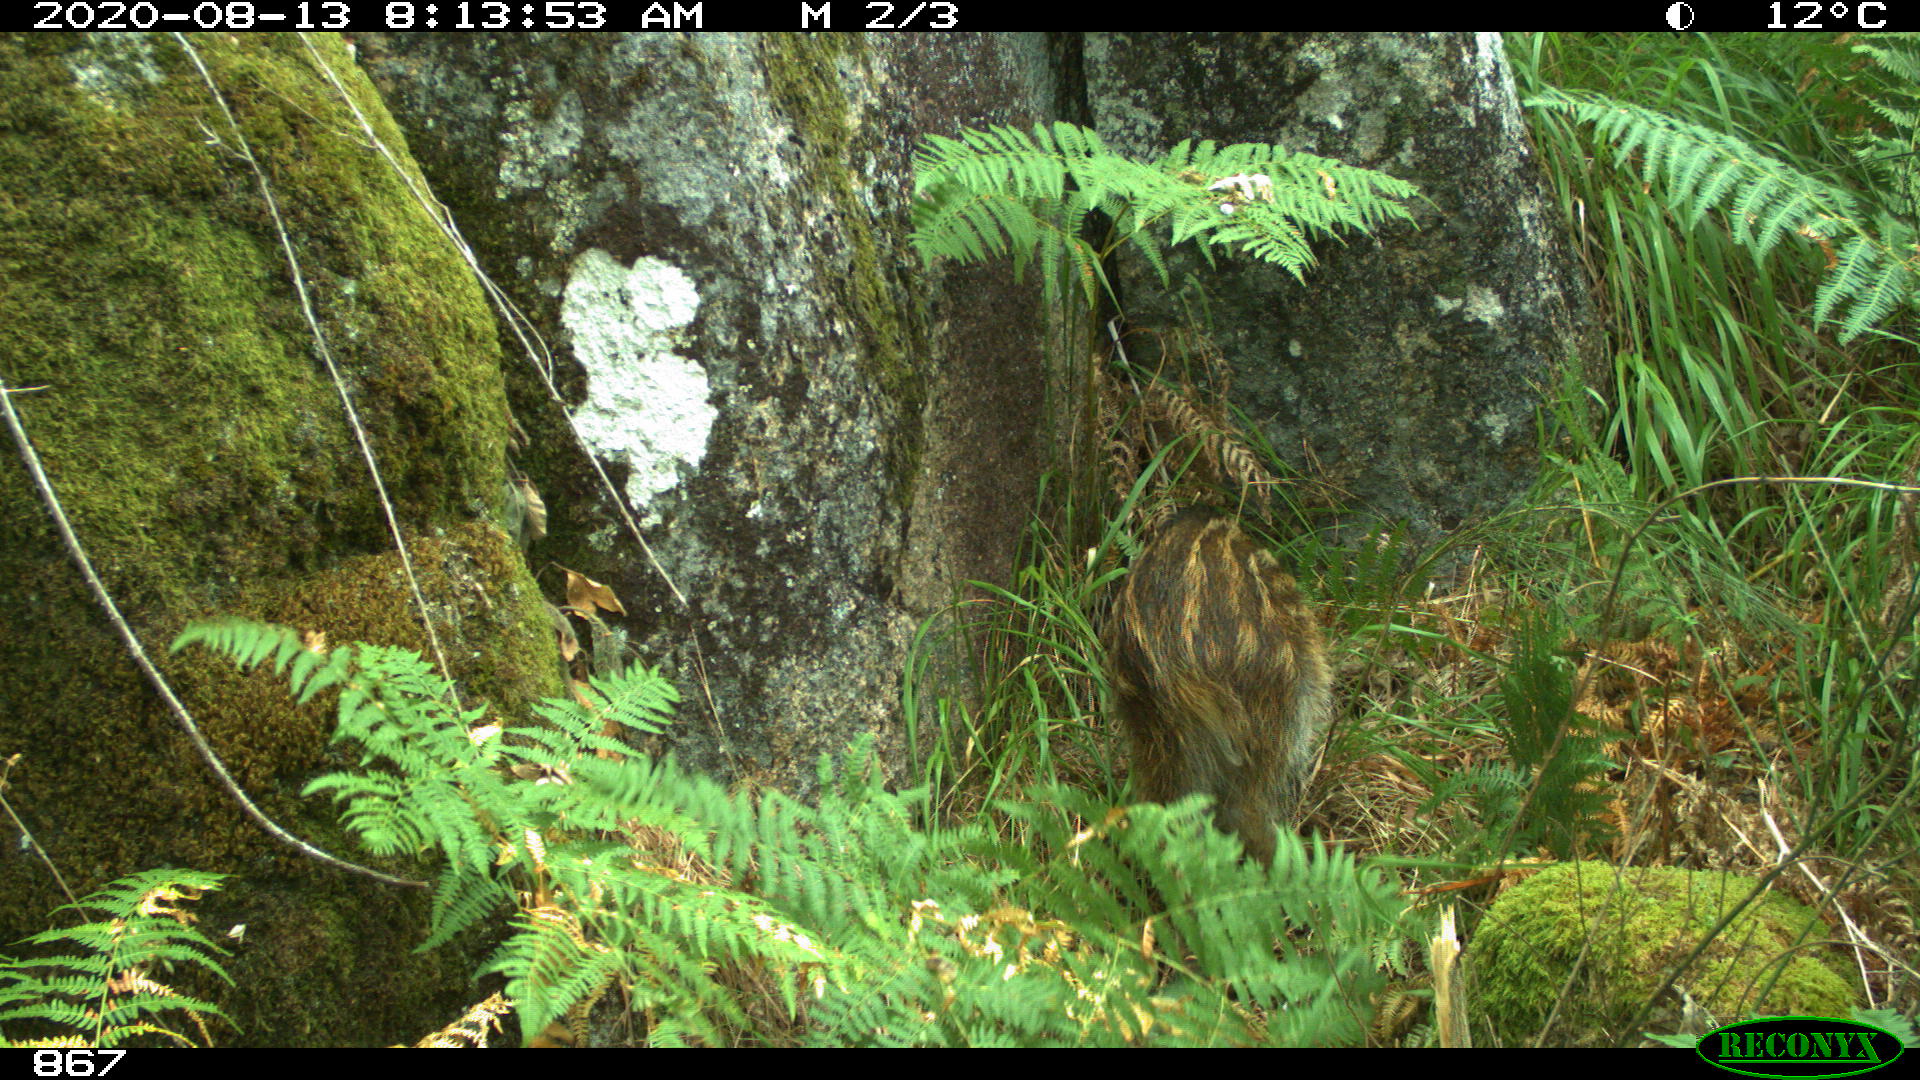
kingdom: Animalia
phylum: Chordata
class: Mammalia
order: Artiodactyla
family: Suidae
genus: Sus
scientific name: Sus scrofa
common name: Wild boar
